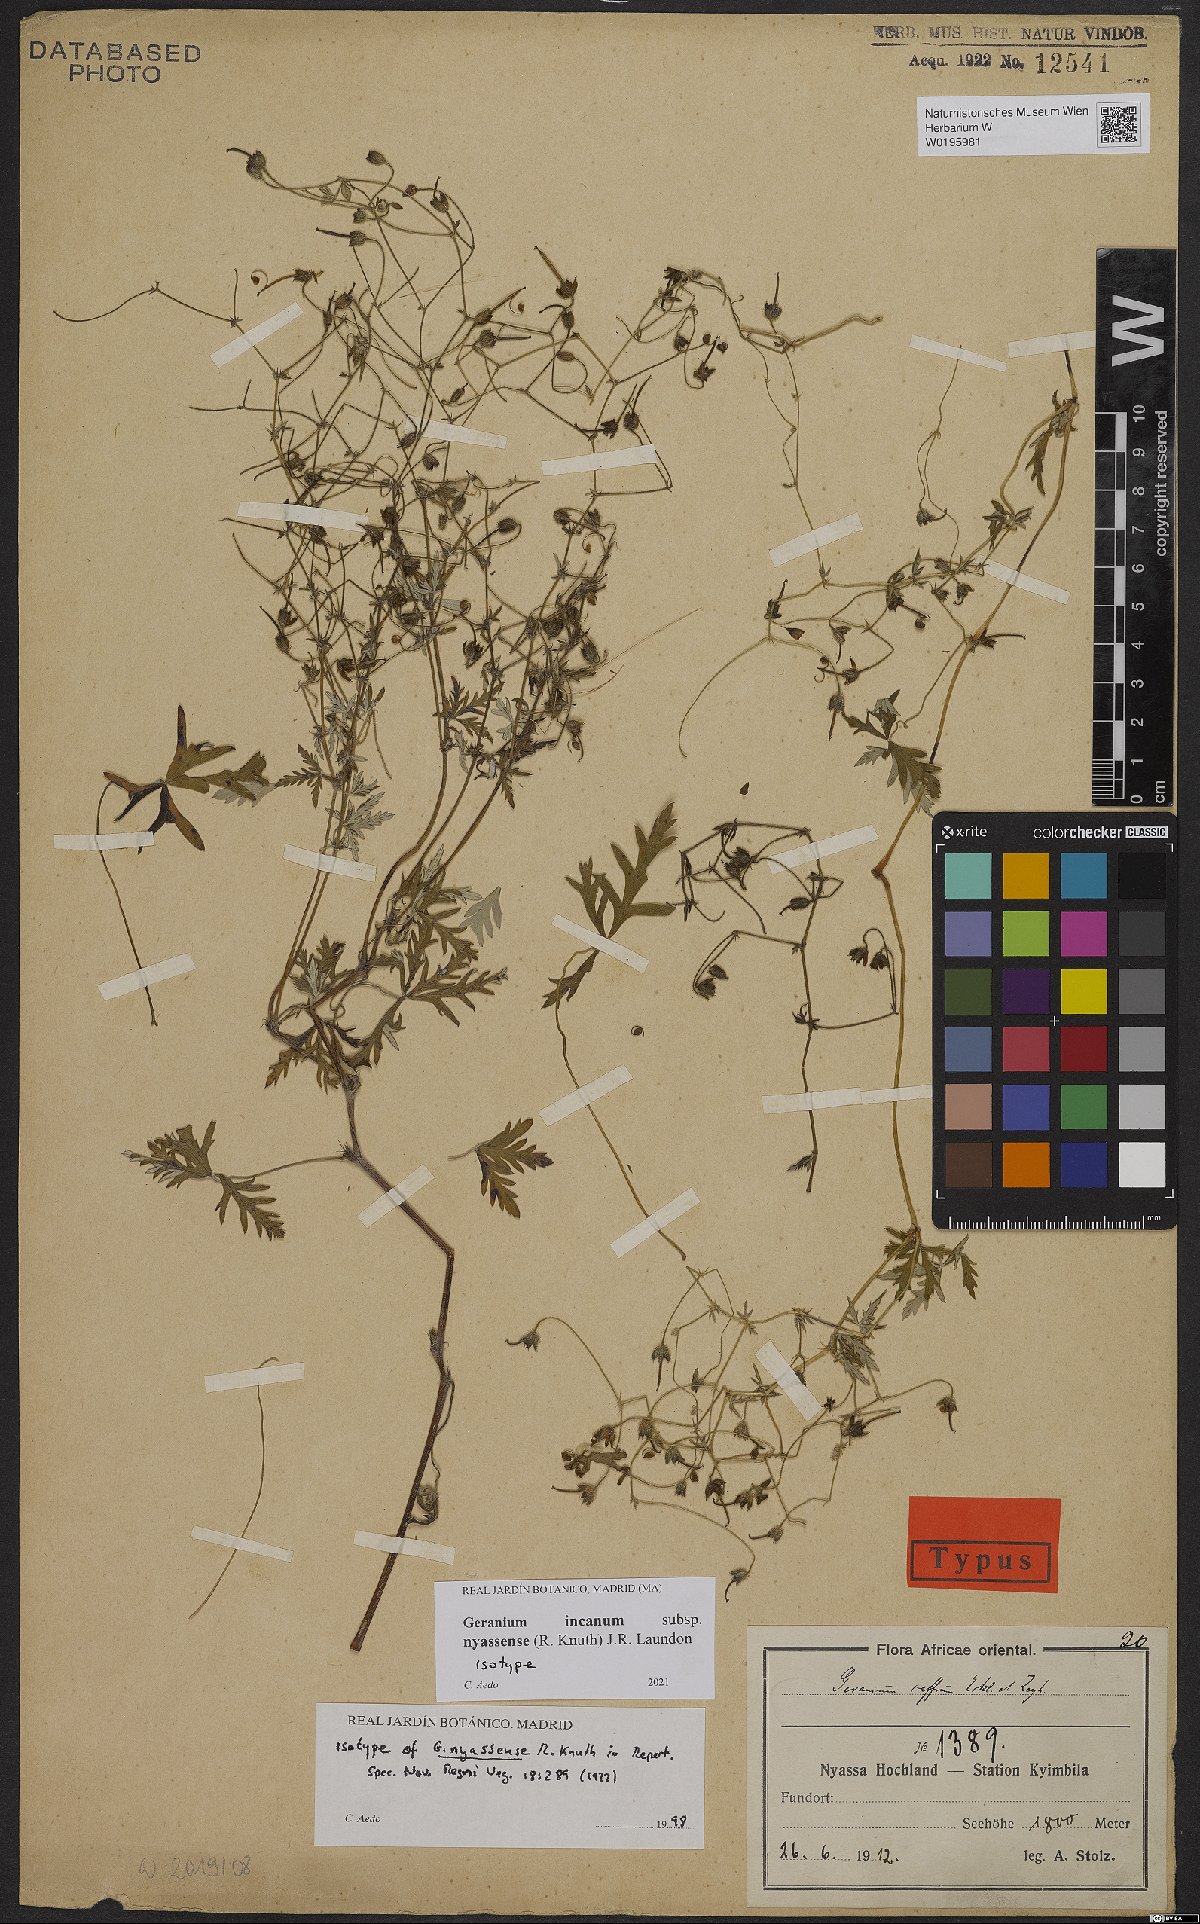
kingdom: Plantae
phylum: Tracheophyta
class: Magnoliopsida
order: Geraniales
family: Geraniaceae
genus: Geranium
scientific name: Geranium nyassense
